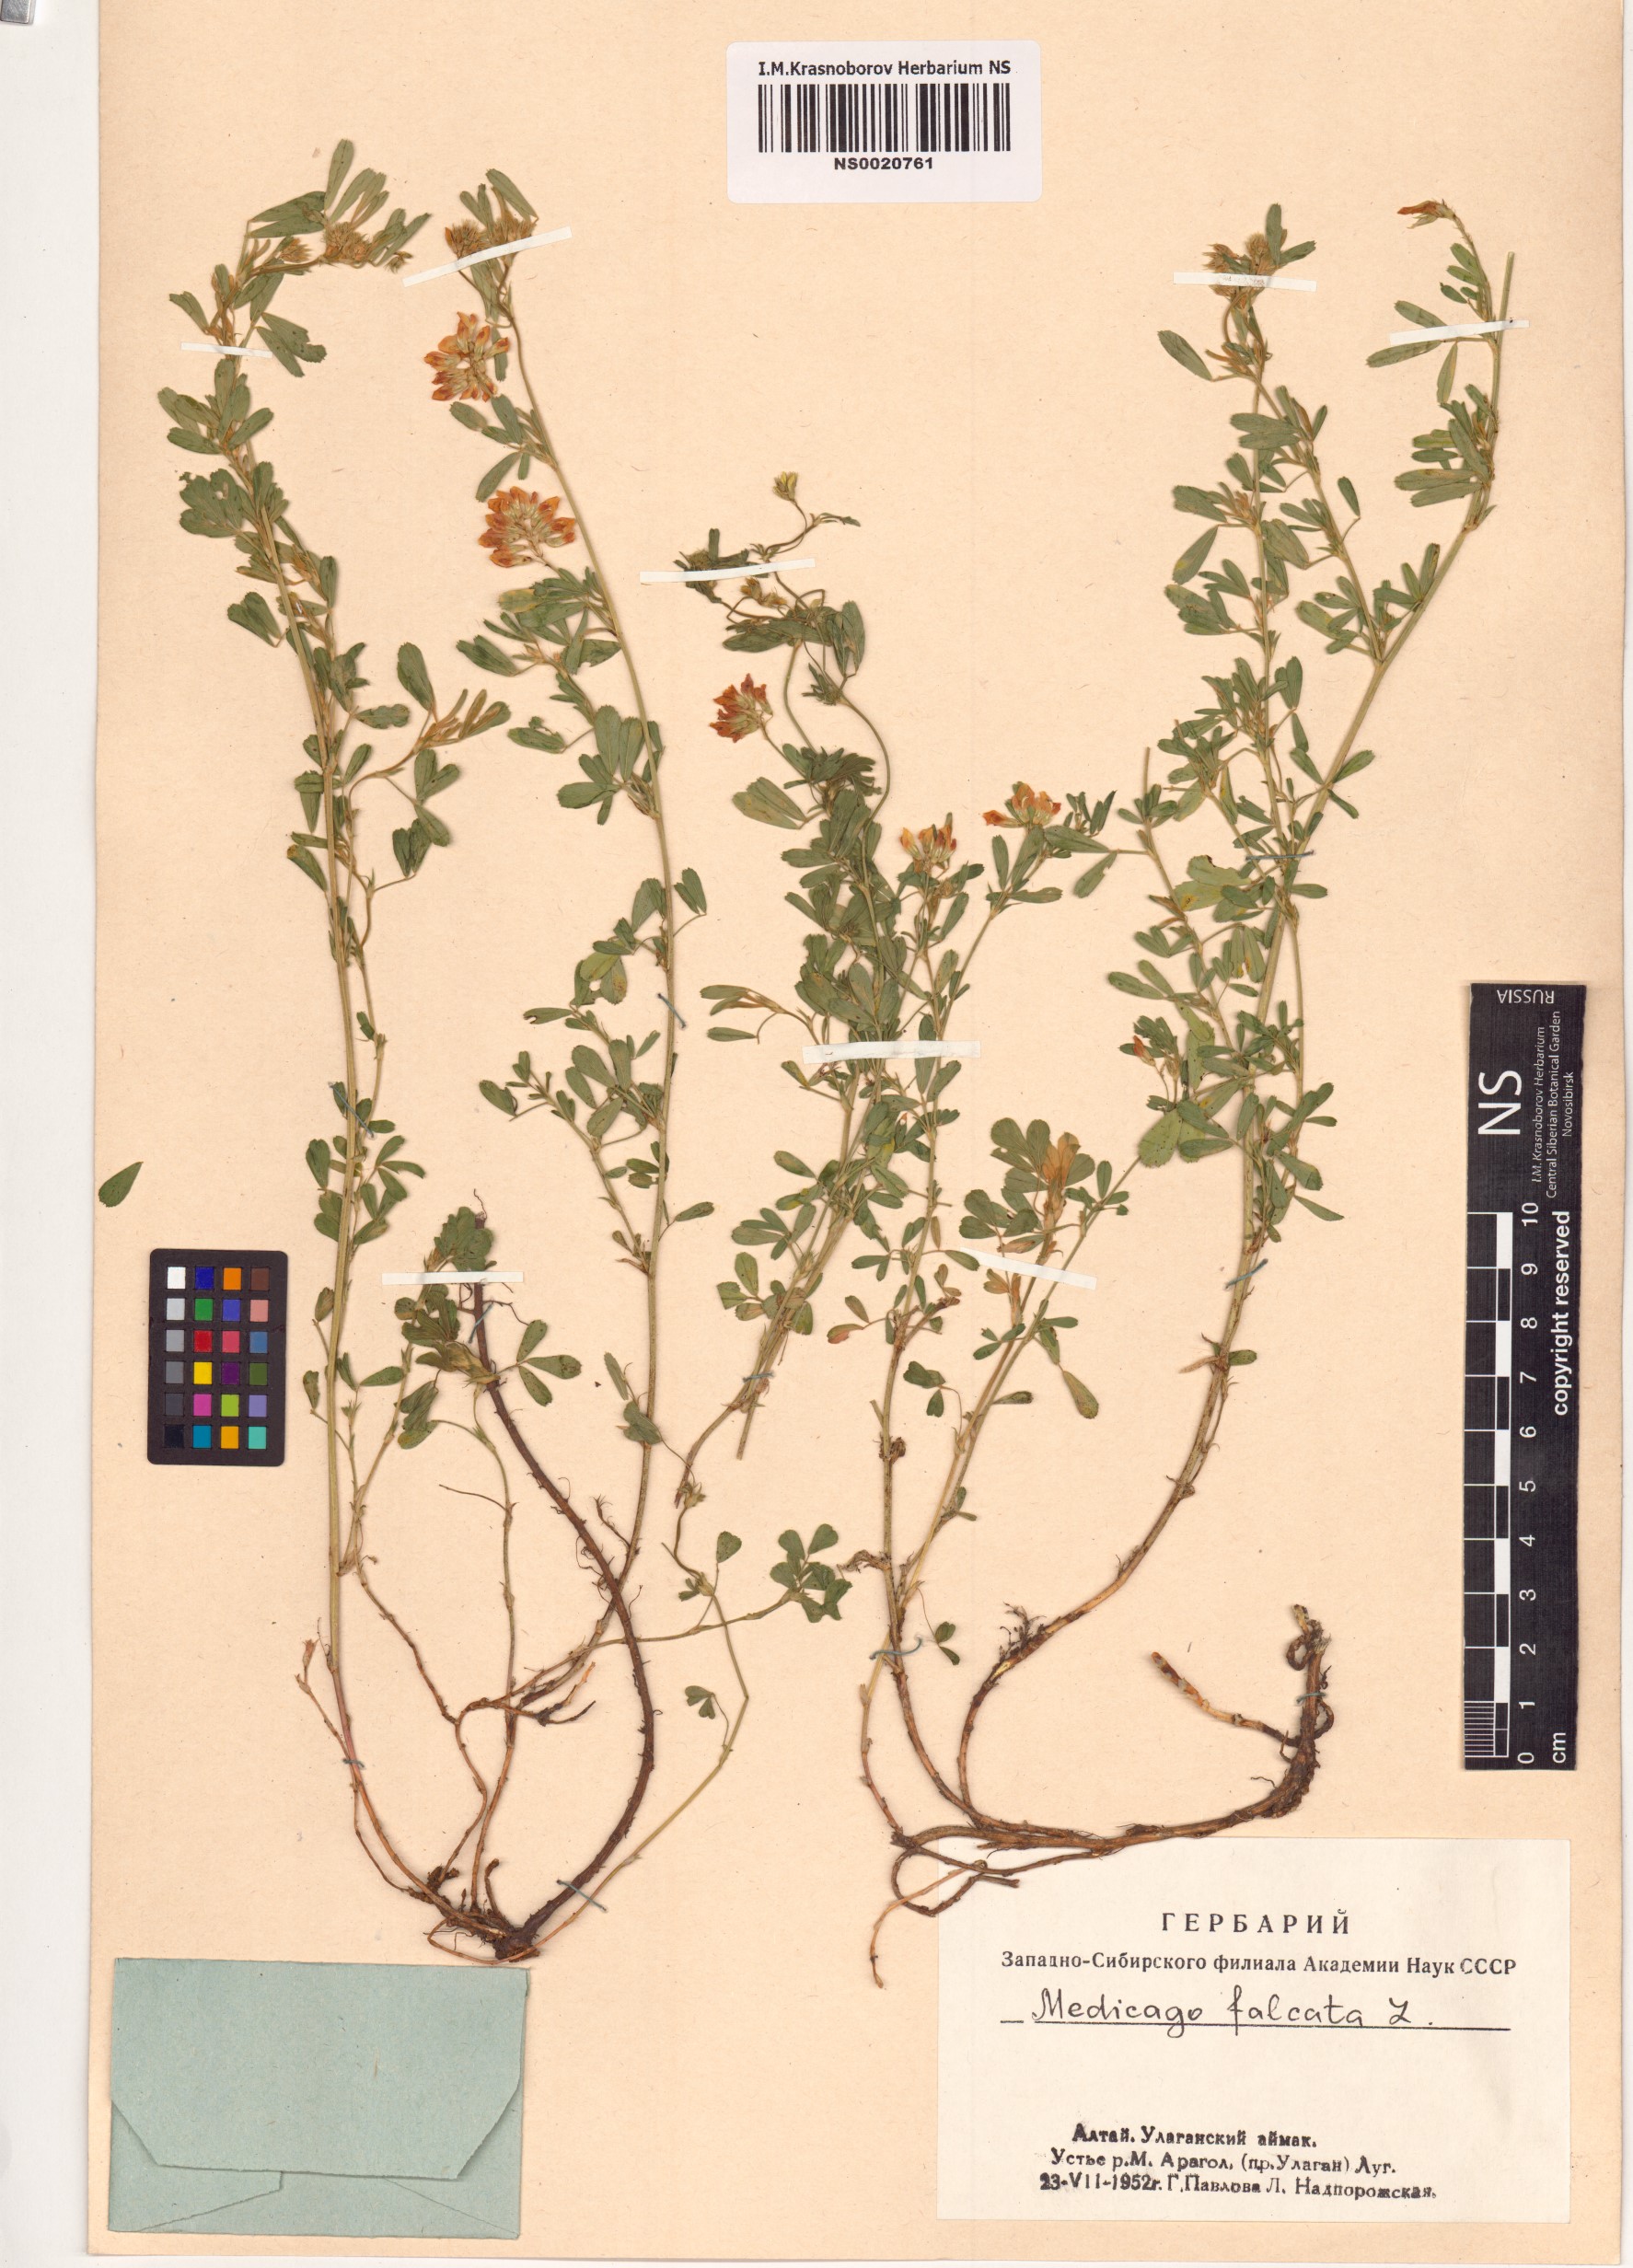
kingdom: Plantae
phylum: Tracheophyta
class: Magnoliopsida
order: Fabales
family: Fabaceae
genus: Medicago
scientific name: Medicago falcata
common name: Sickle medick
